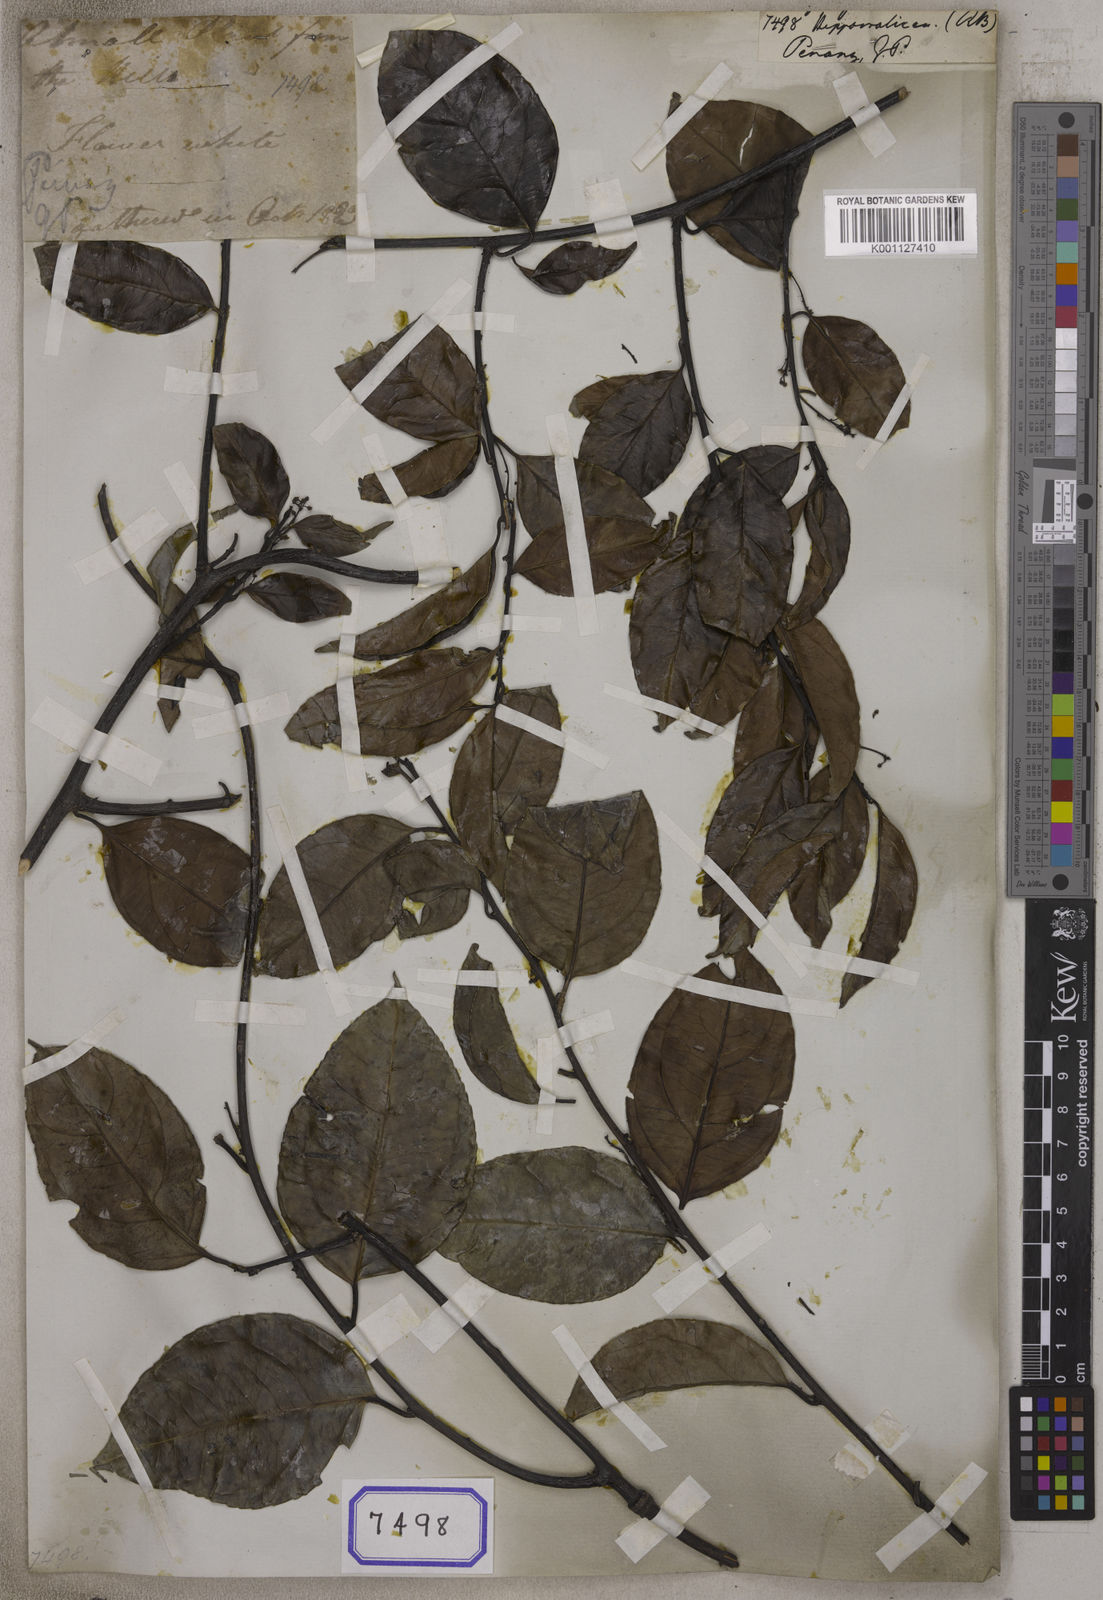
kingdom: Plantae
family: Hippocrateaceae
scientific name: Hippocrateaceae
